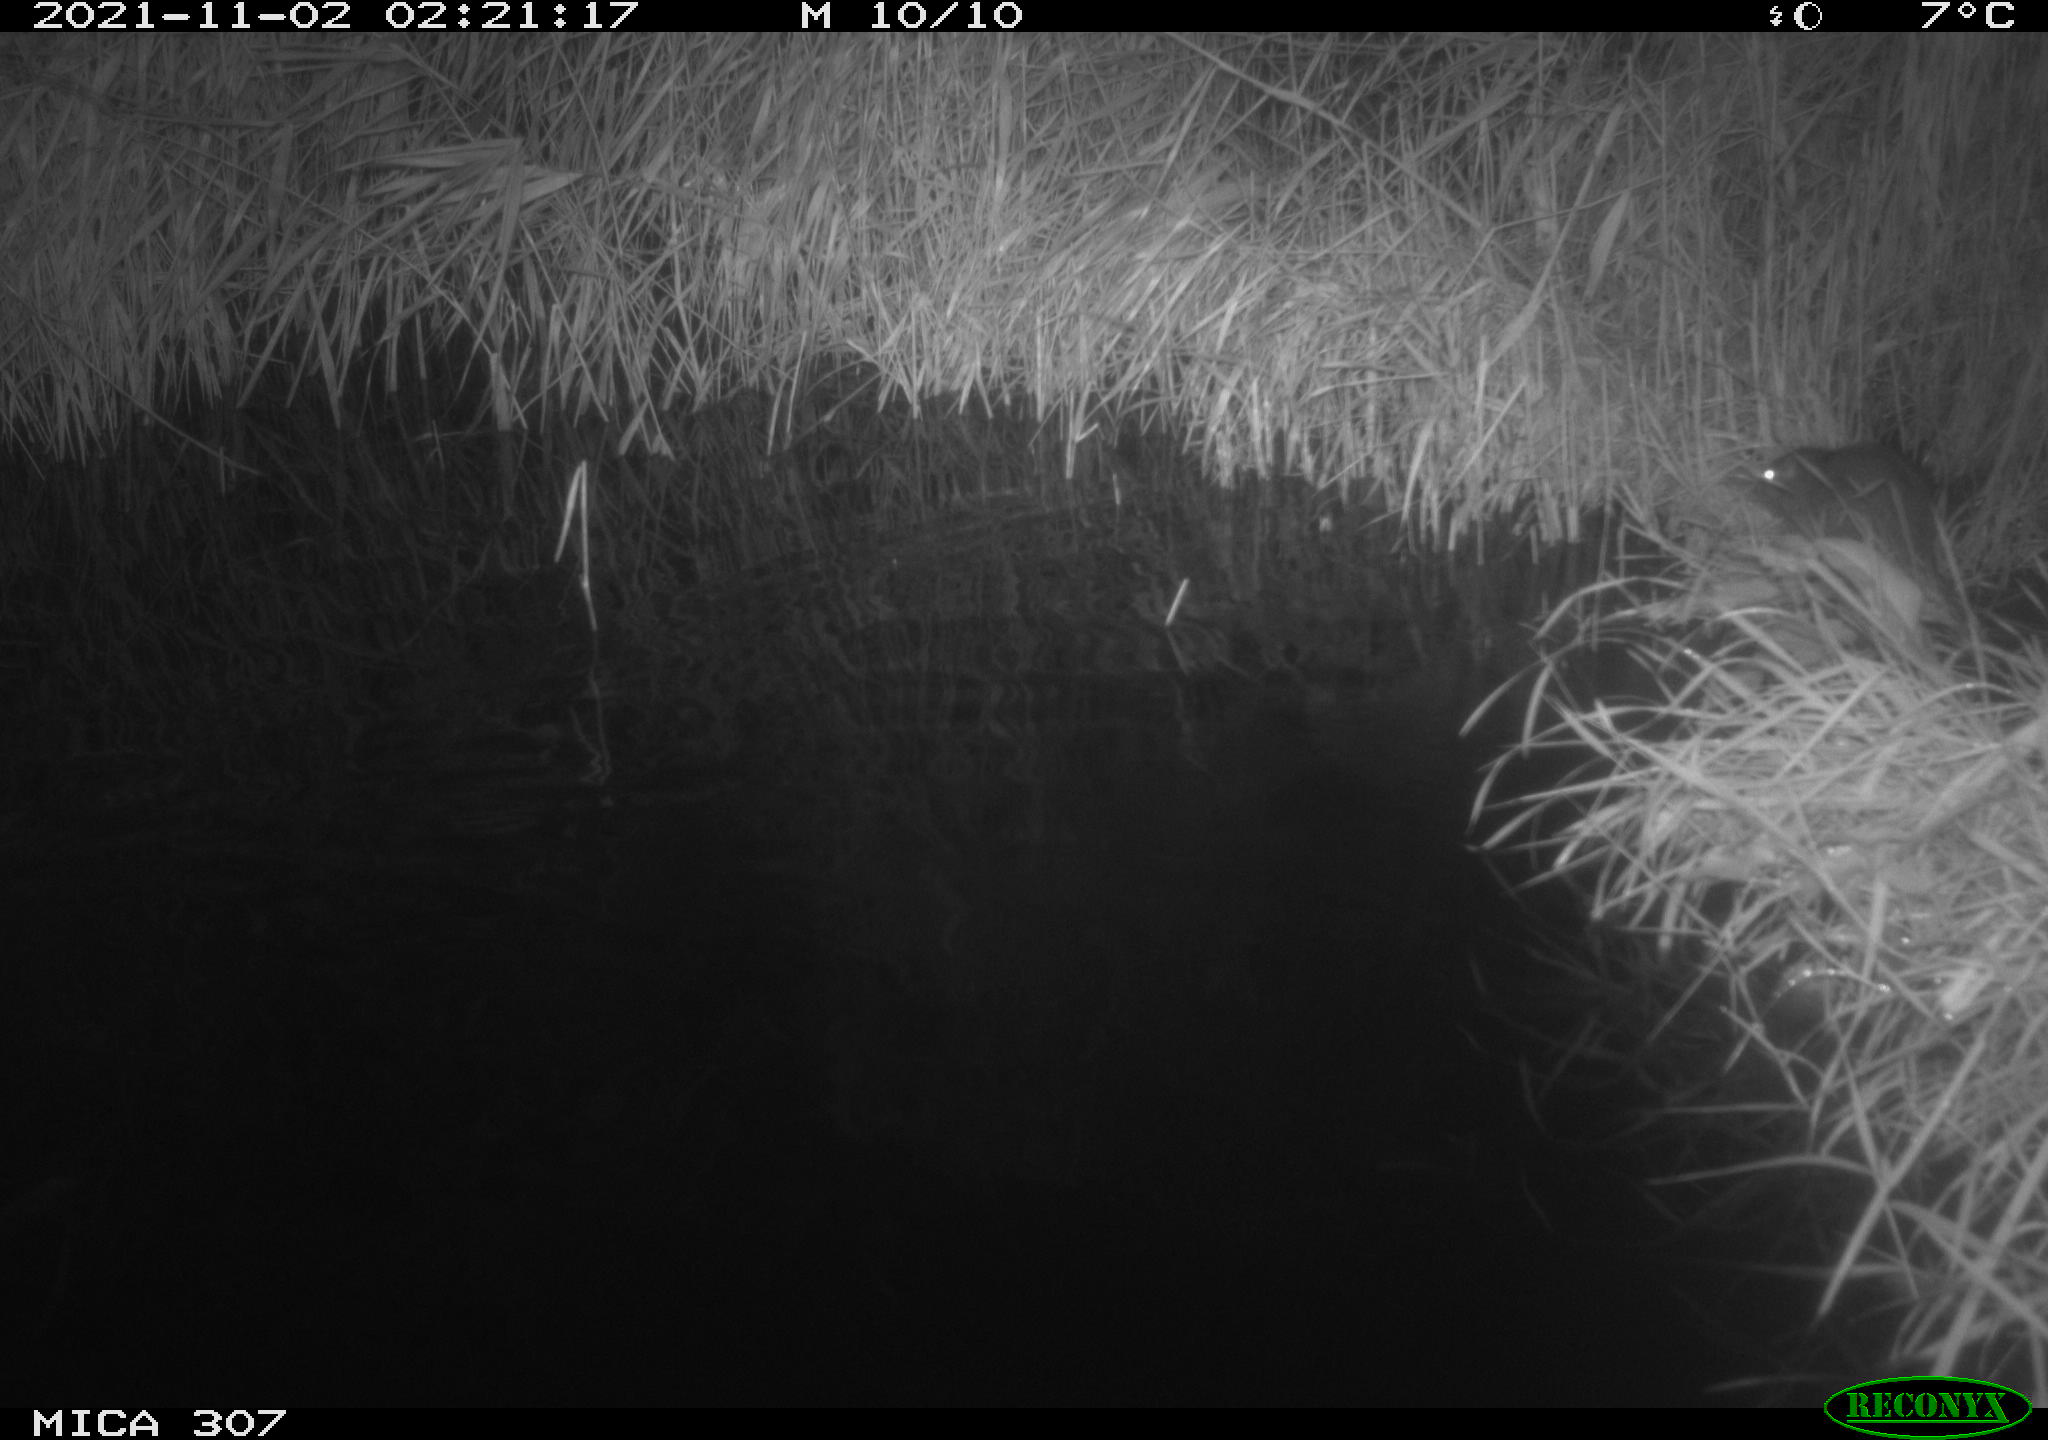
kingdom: Animalia
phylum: Chordata
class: Mammalia
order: Rodentia
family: Muridae
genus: Rattus
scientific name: Rattus norvegicus
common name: Brown rat
